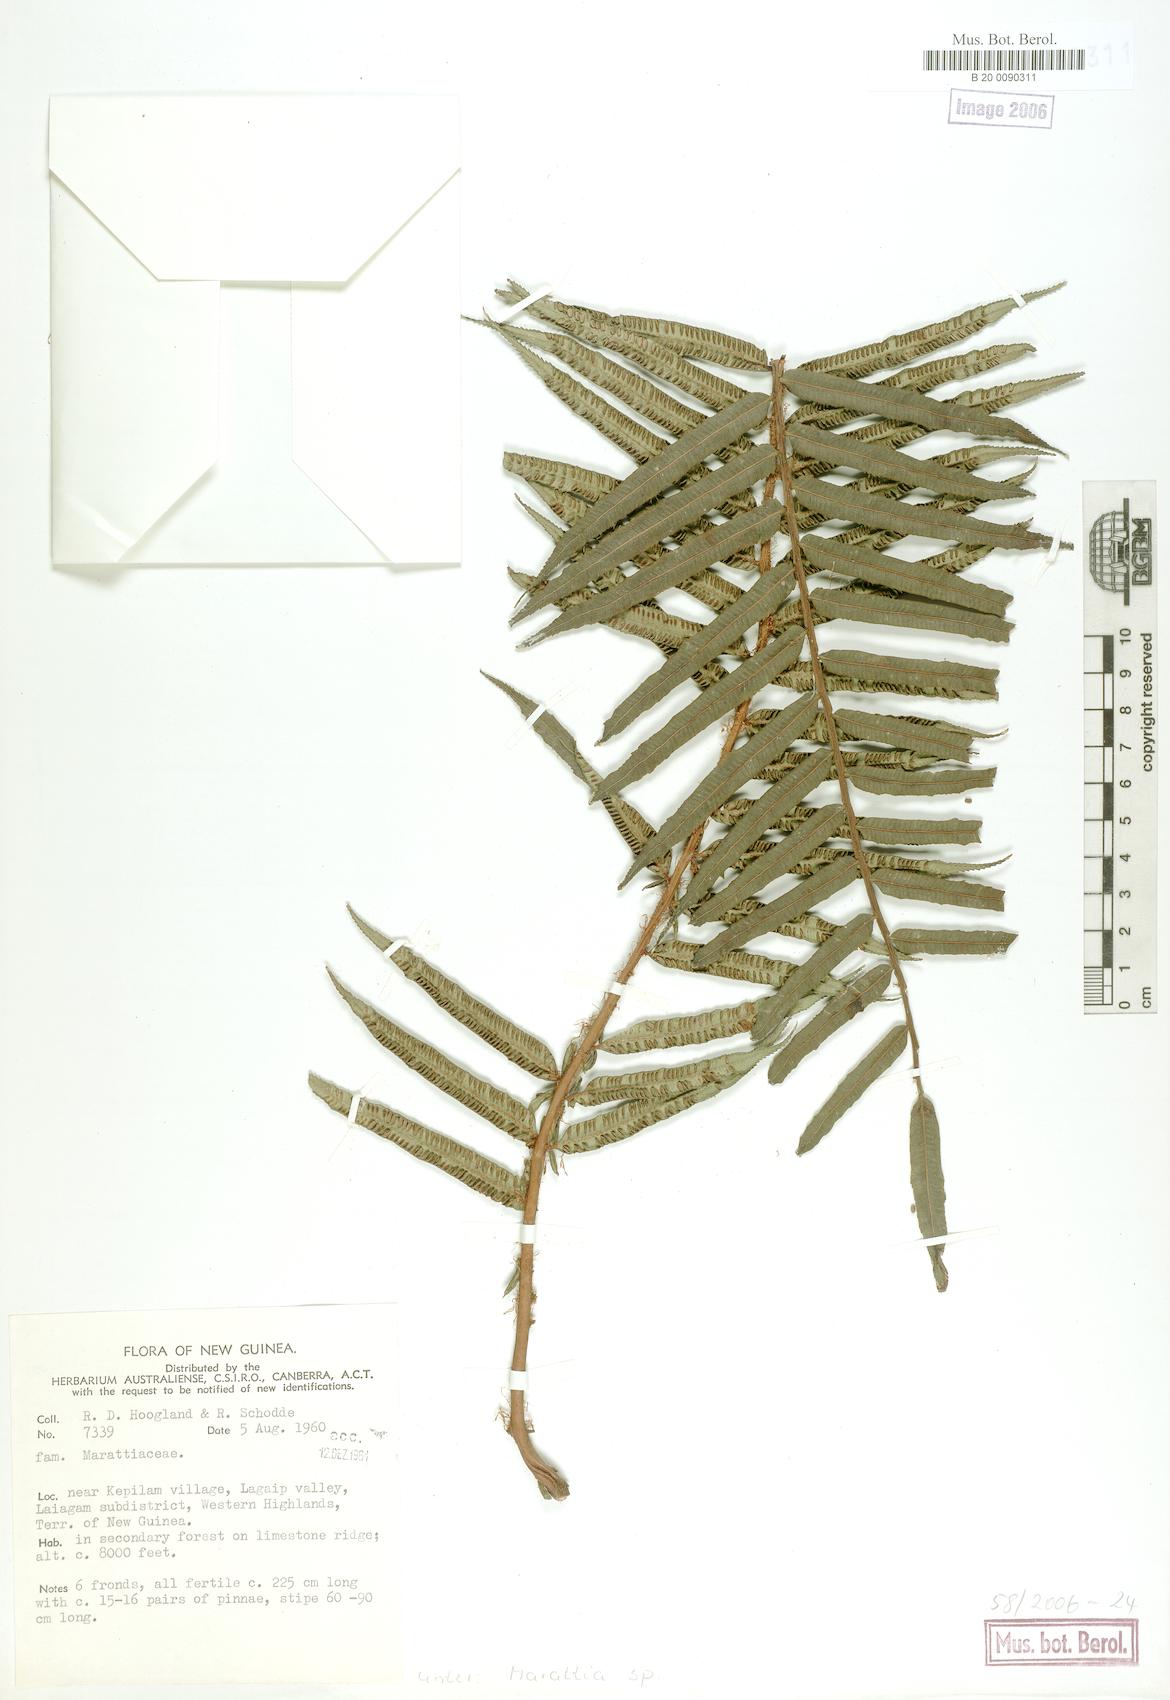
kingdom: Plantae
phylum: Tracheophyta
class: Polypodiopsida
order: Marattiales
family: Marattiaceae
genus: Marattia
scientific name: Marattia
